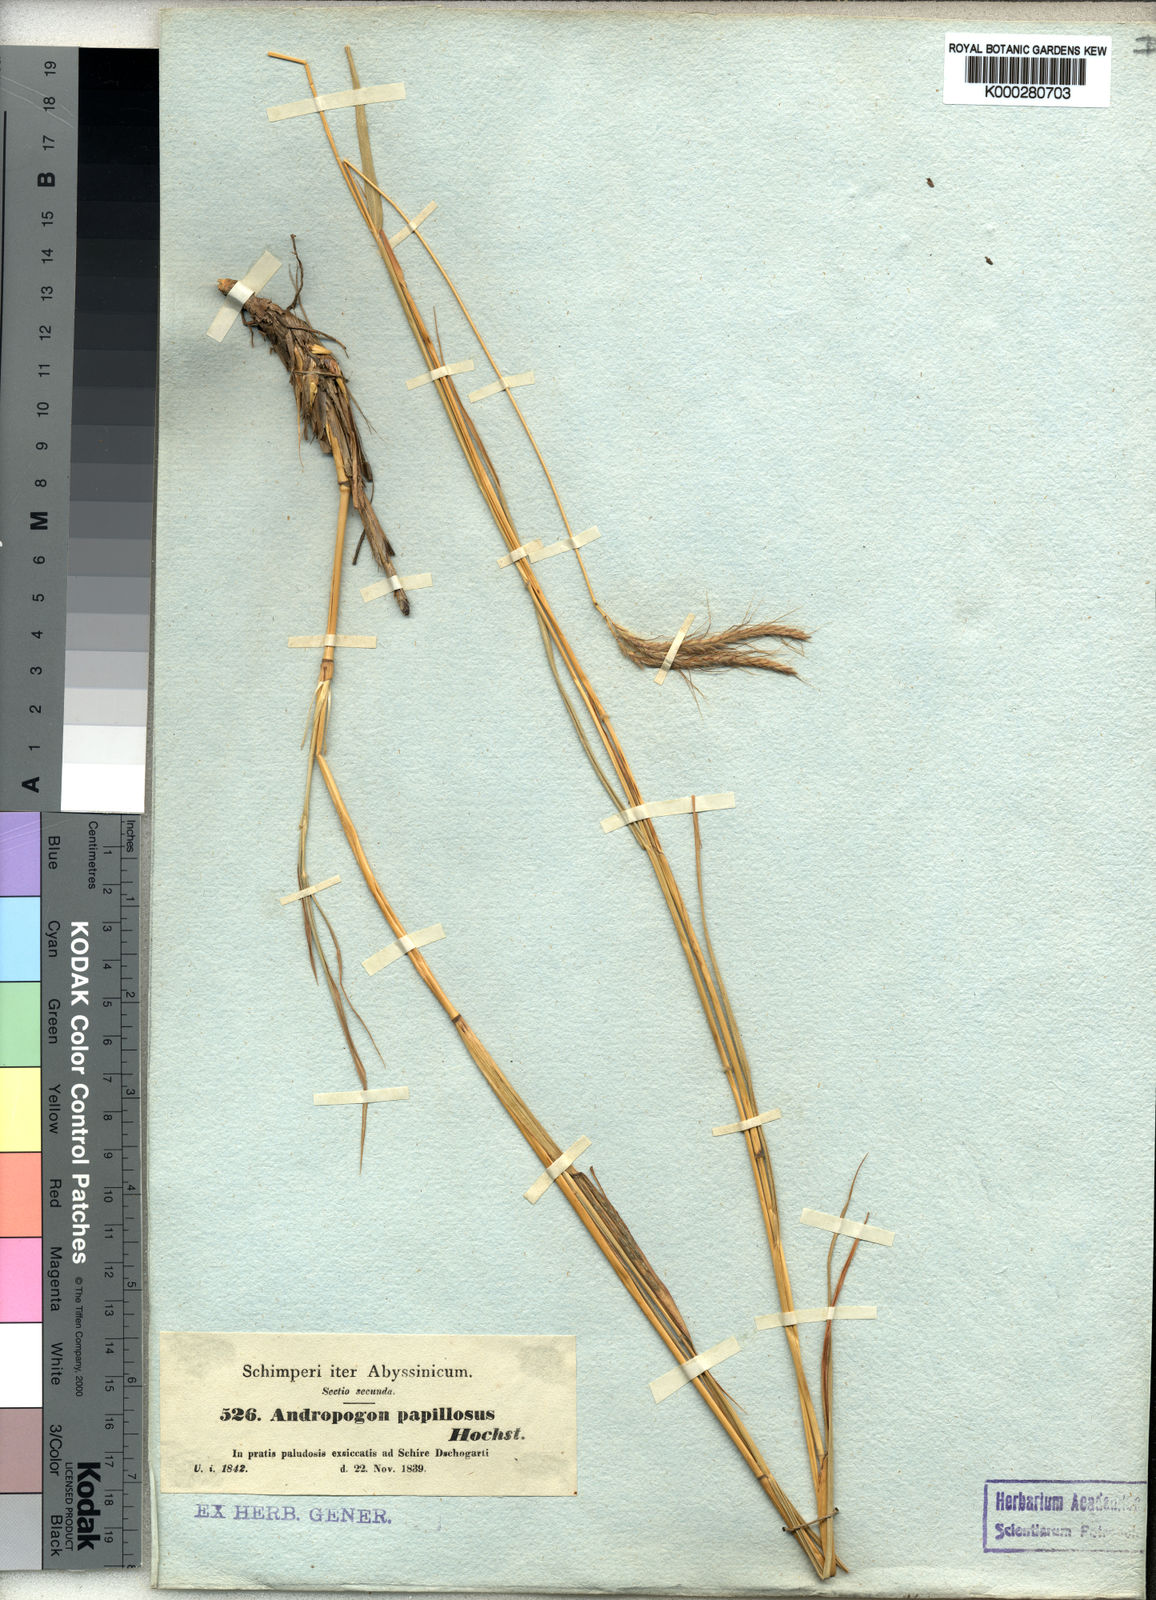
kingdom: Plantae
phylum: Tracheophyta
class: Liliopsida
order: Poales
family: Poaceae
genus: Dichanthium
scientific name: Dichanthium annulatum
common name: Kleberg's bluestem
